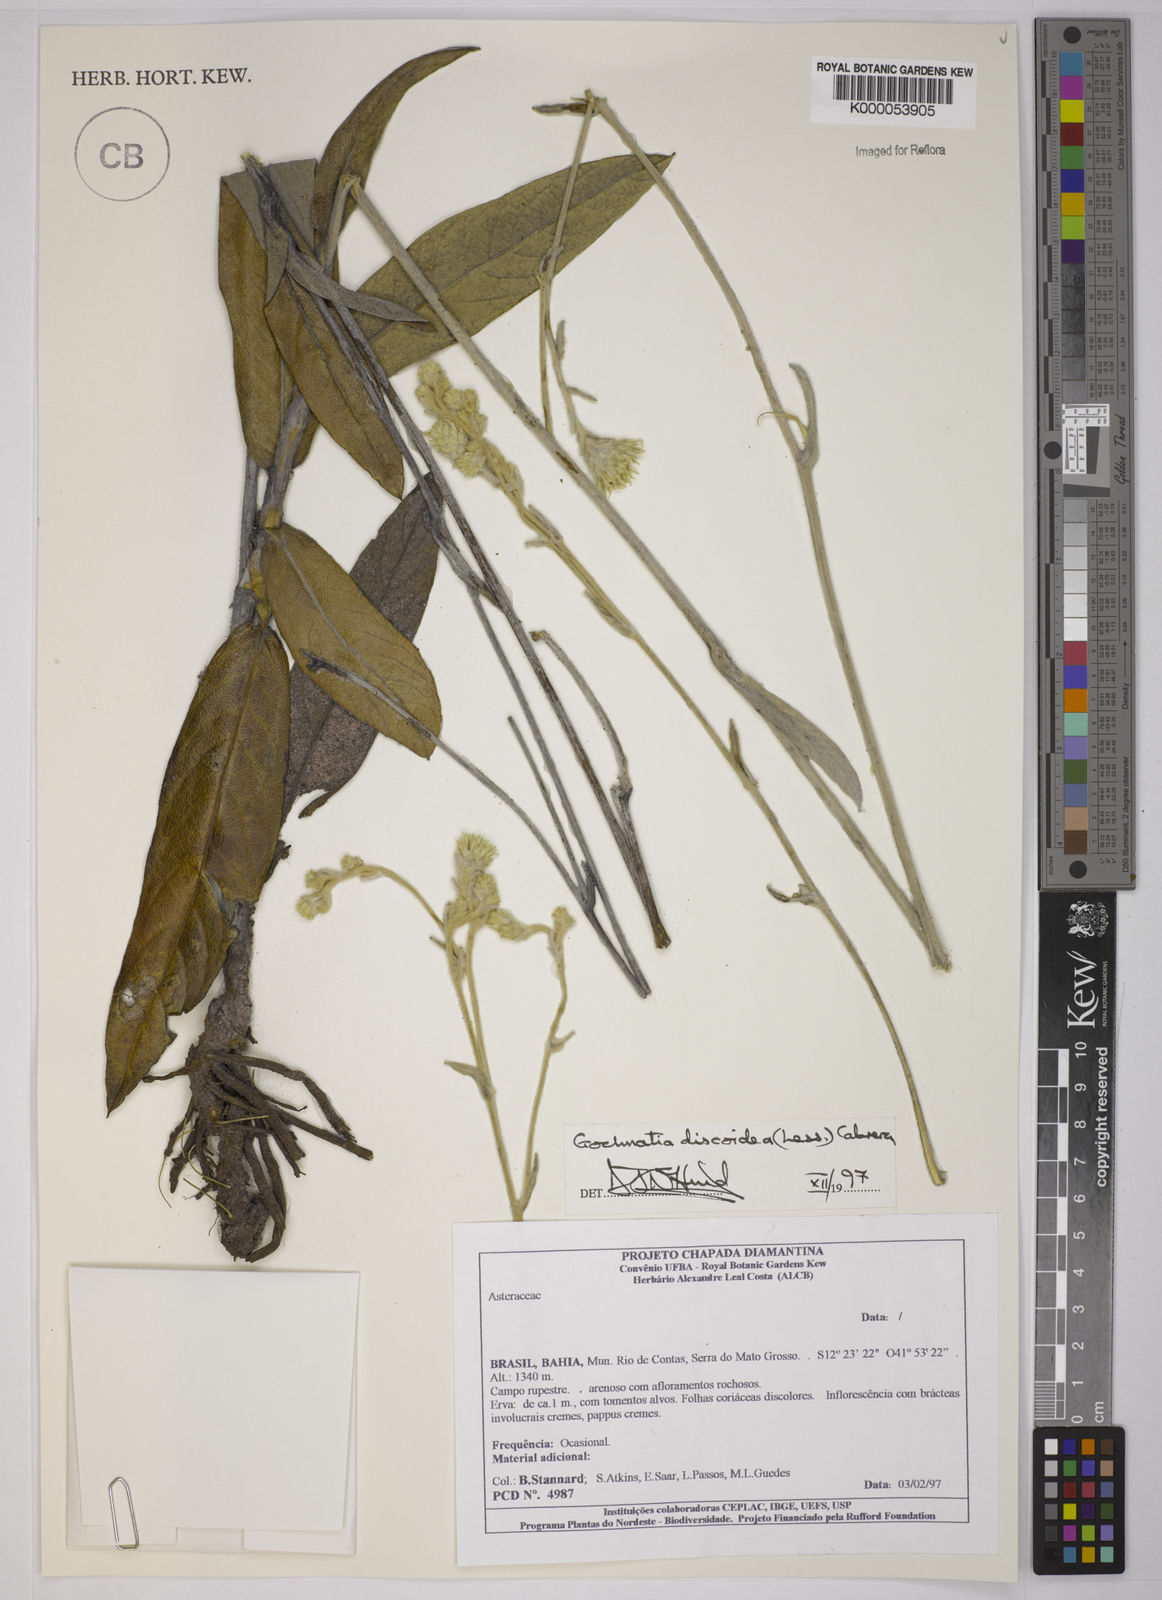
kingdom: Plantae
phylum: Tracheophyta
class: Magnoliopsida
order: Asterales
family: Asteraceae
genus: Richterago
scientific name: Richterago discoidea
